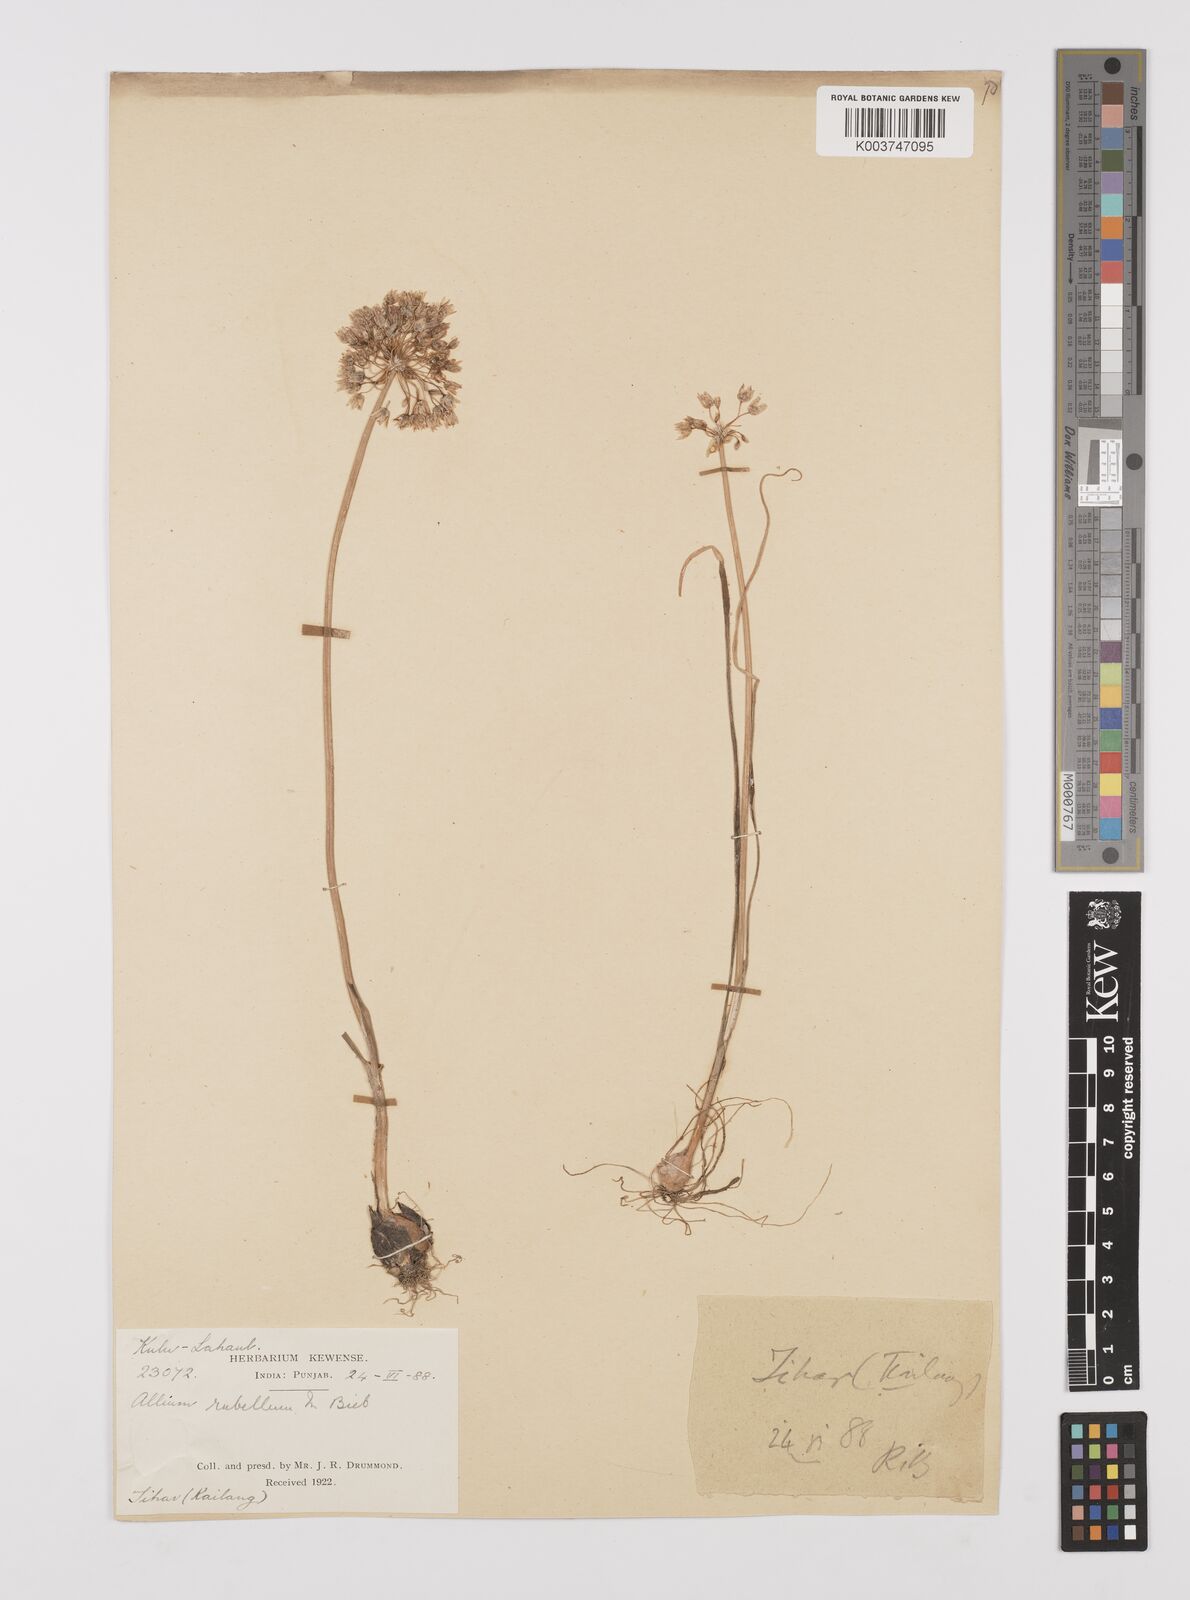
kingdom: Plantae
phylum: Tracheophyta
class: Liliopsida
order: Asparagales
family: Amaryllidaceae
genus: Allium
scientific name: Allium caesioides
